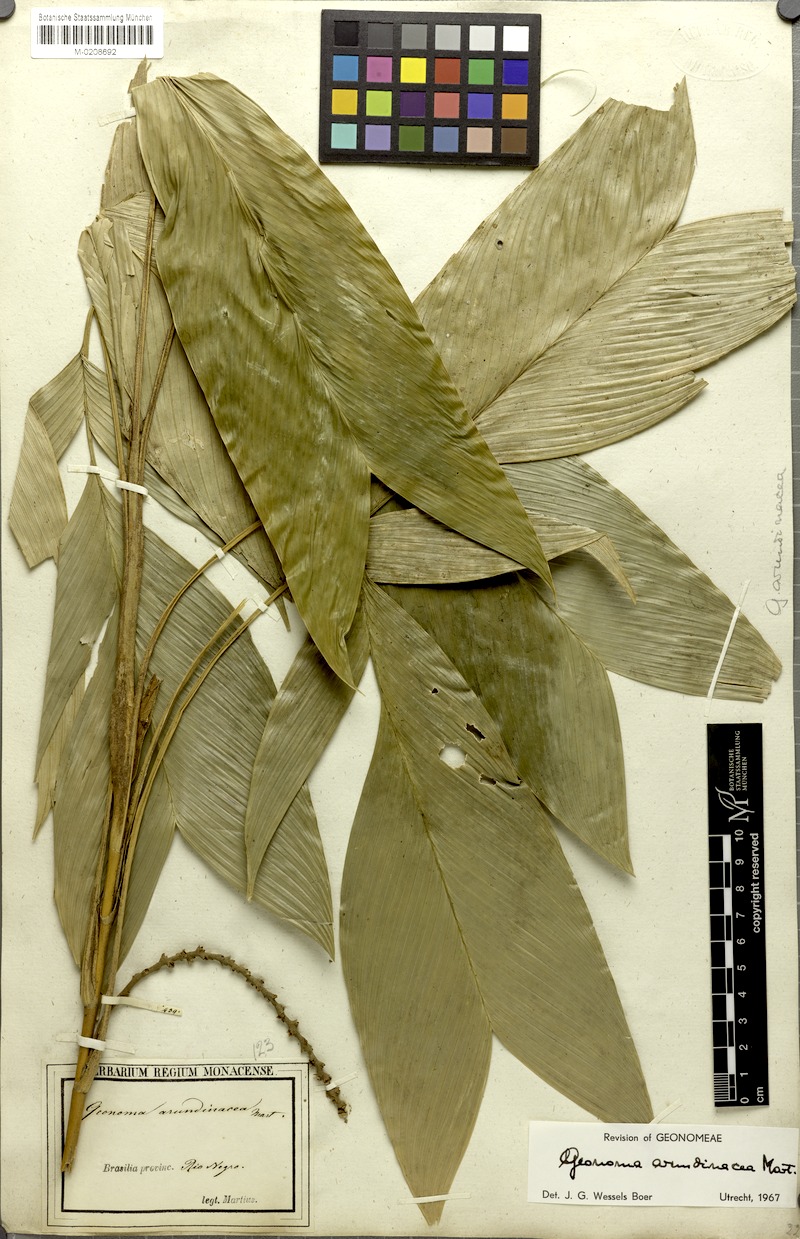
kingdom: Plantae
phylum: Tracheophyta
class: Liliopsida
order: Arecales
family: Arecaceae
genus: Geonoma
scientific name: Geonoma stricta
